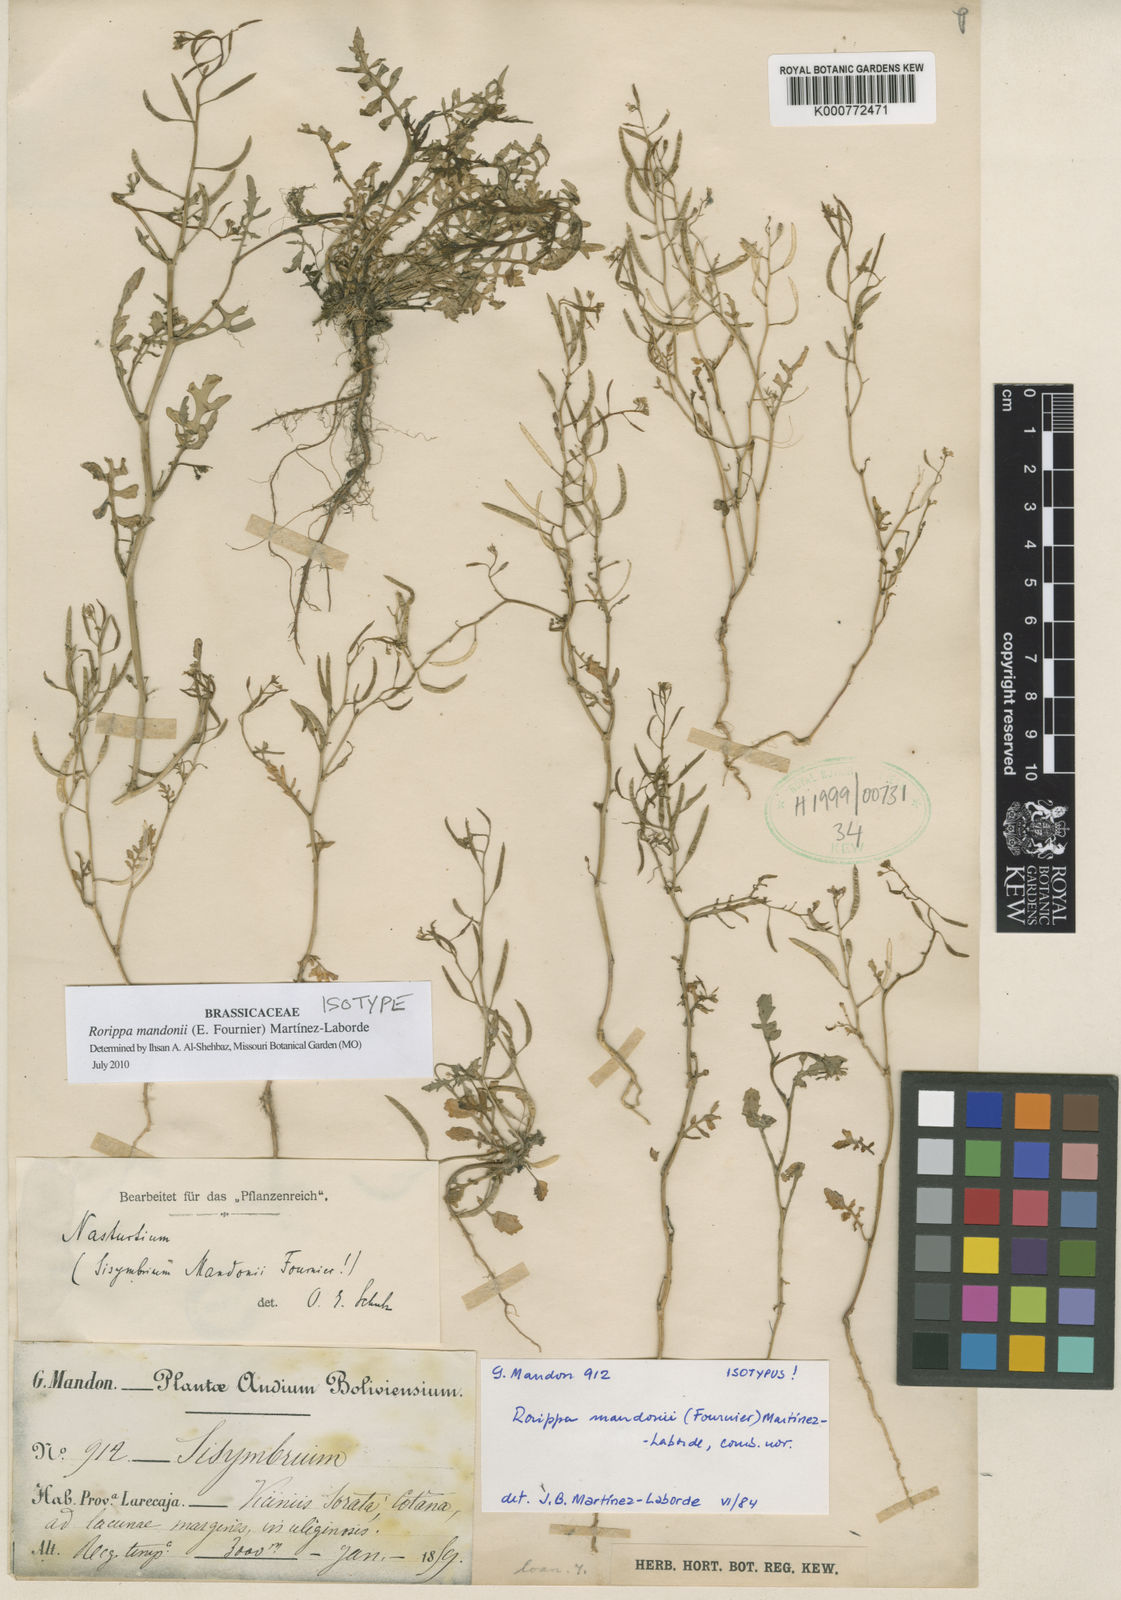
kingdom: Plantae
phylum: Tracheophyta
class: Magnoliopsida
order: Brassicales
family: Brassicaceae
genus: Rorippa
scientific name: Rorippa mandonii
